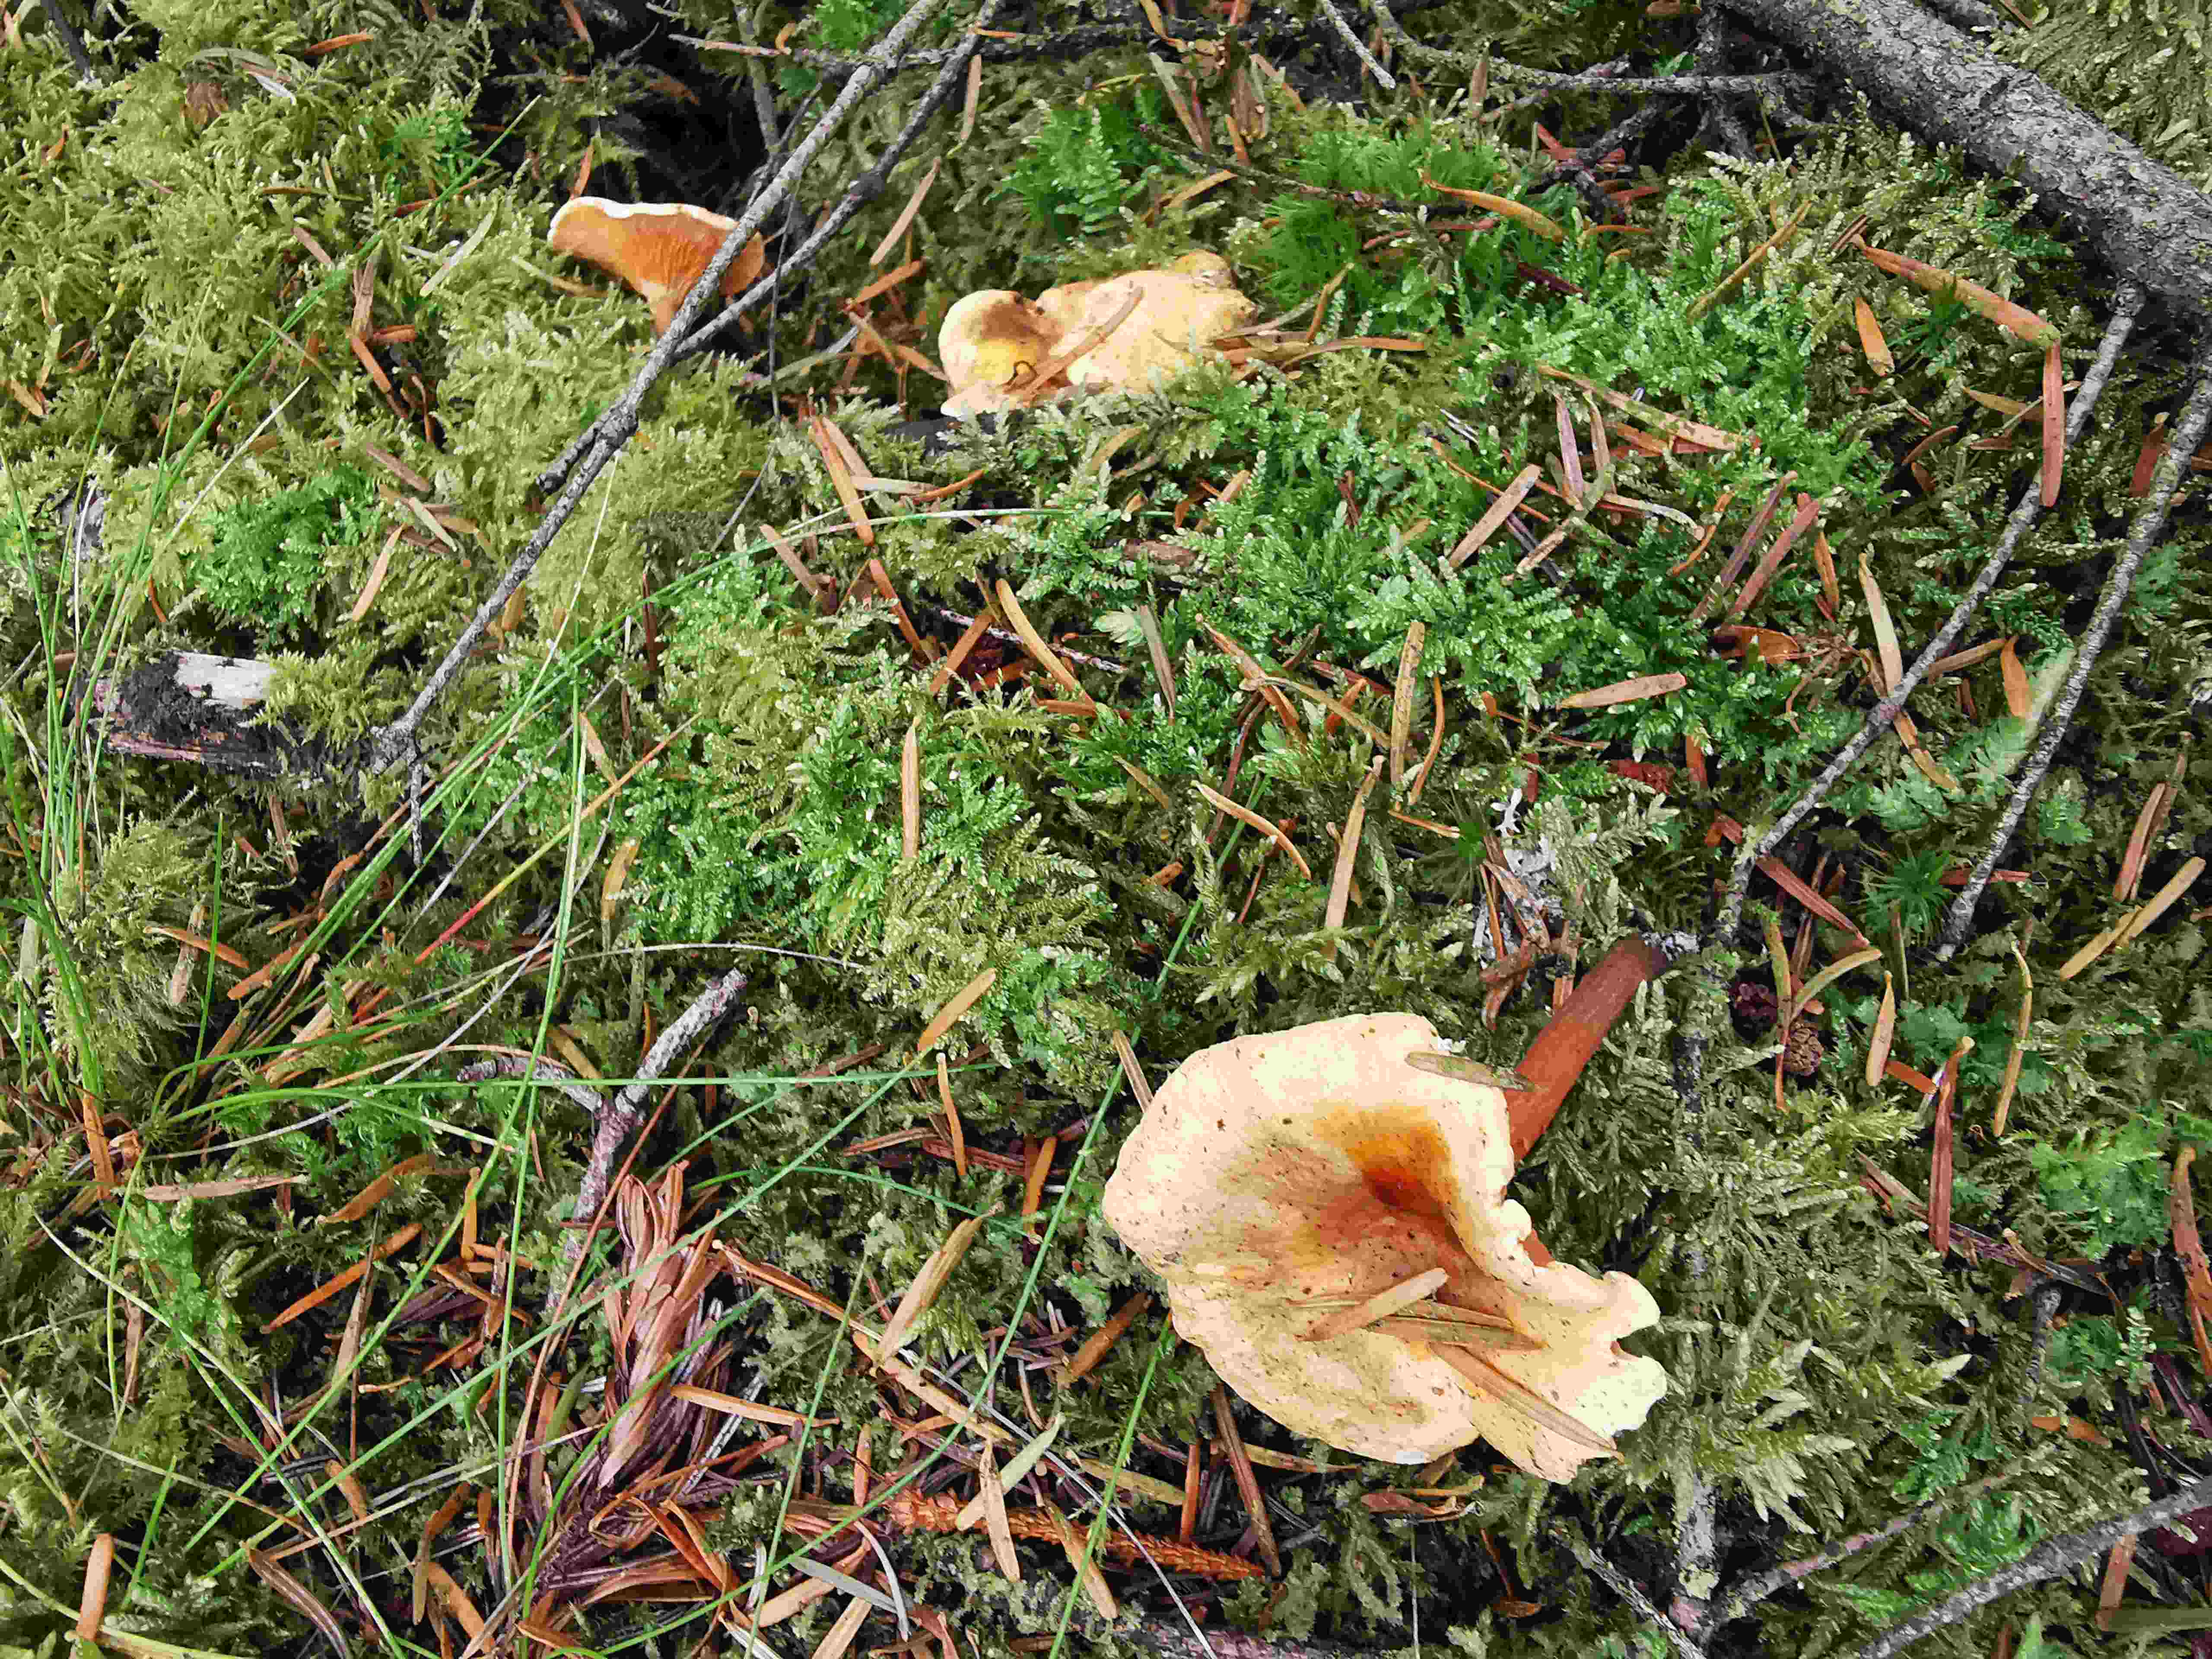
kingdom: Fungi
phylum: Basidiomycota
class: Agaricomycetes
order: Boletales
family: Hygrophoropsidaceae
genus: Hygrophoropsis
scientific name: Hygrophoropsis aurantiaca
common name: almindelig orangekantarel
